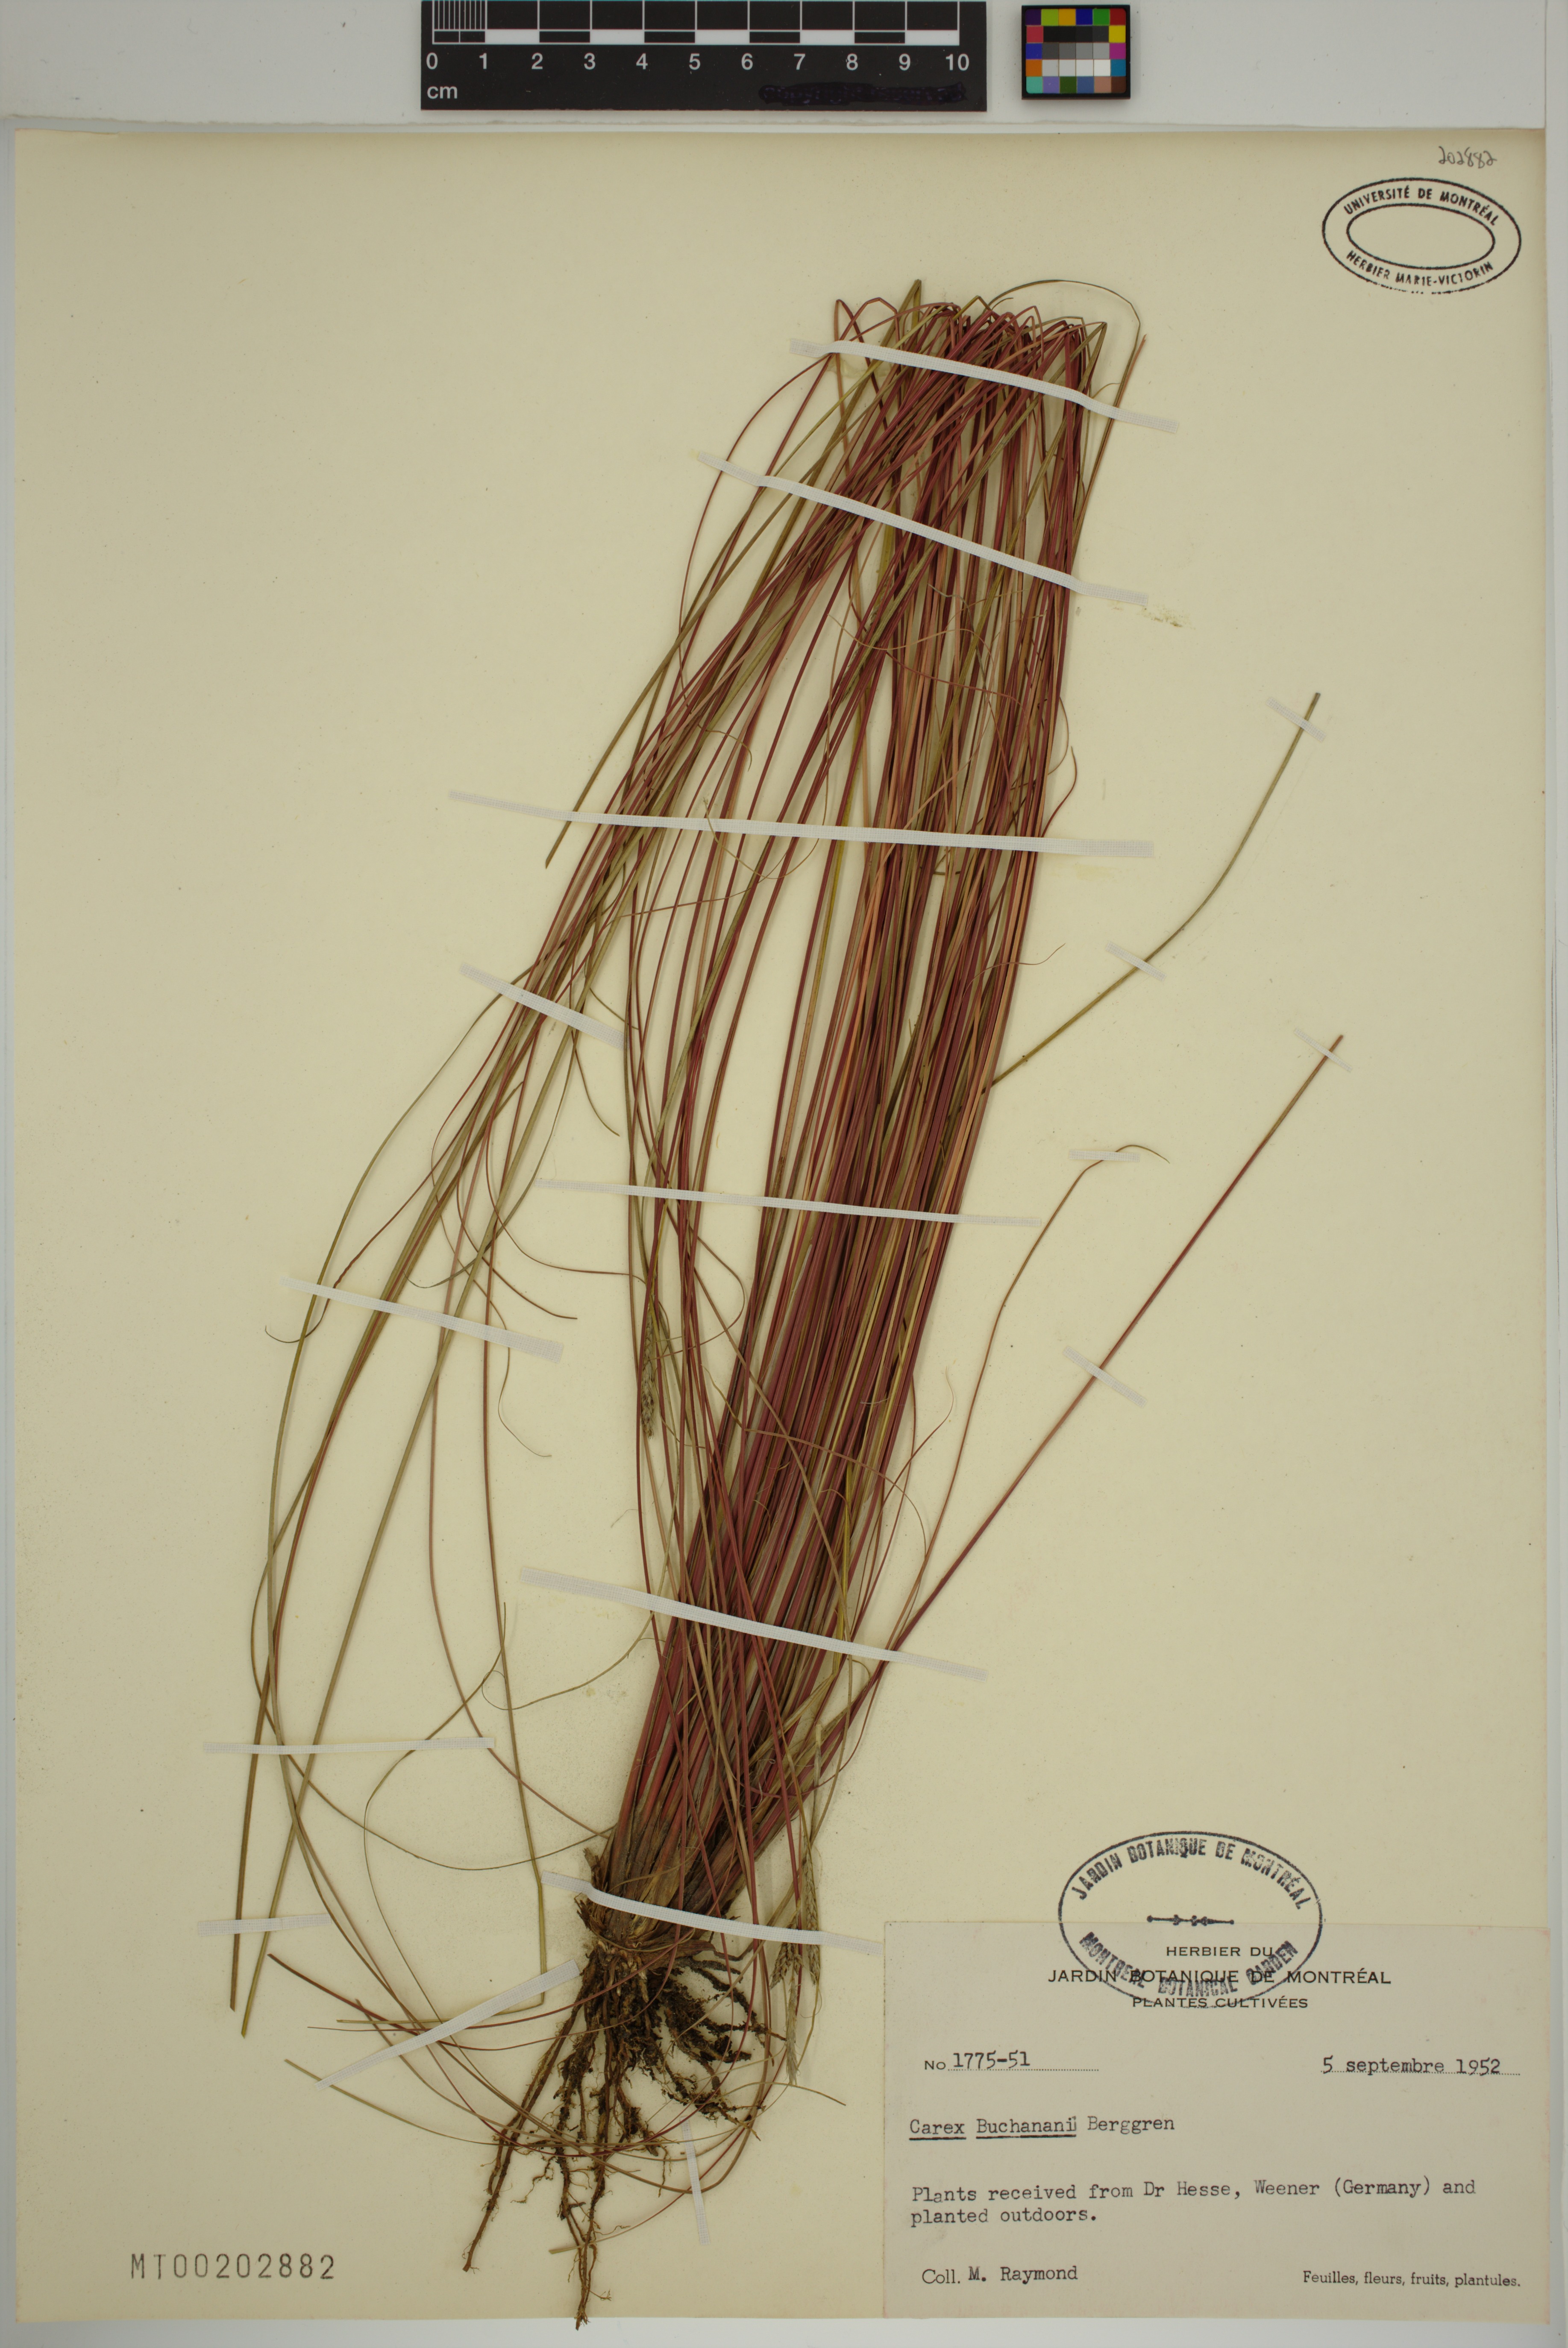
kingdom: Plantae
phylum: Tracheophyta
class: Liliopsida
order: Poales
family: Cyperaceae
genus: Carex
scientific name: Carex buchananii
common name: Leatherleaf sedge
